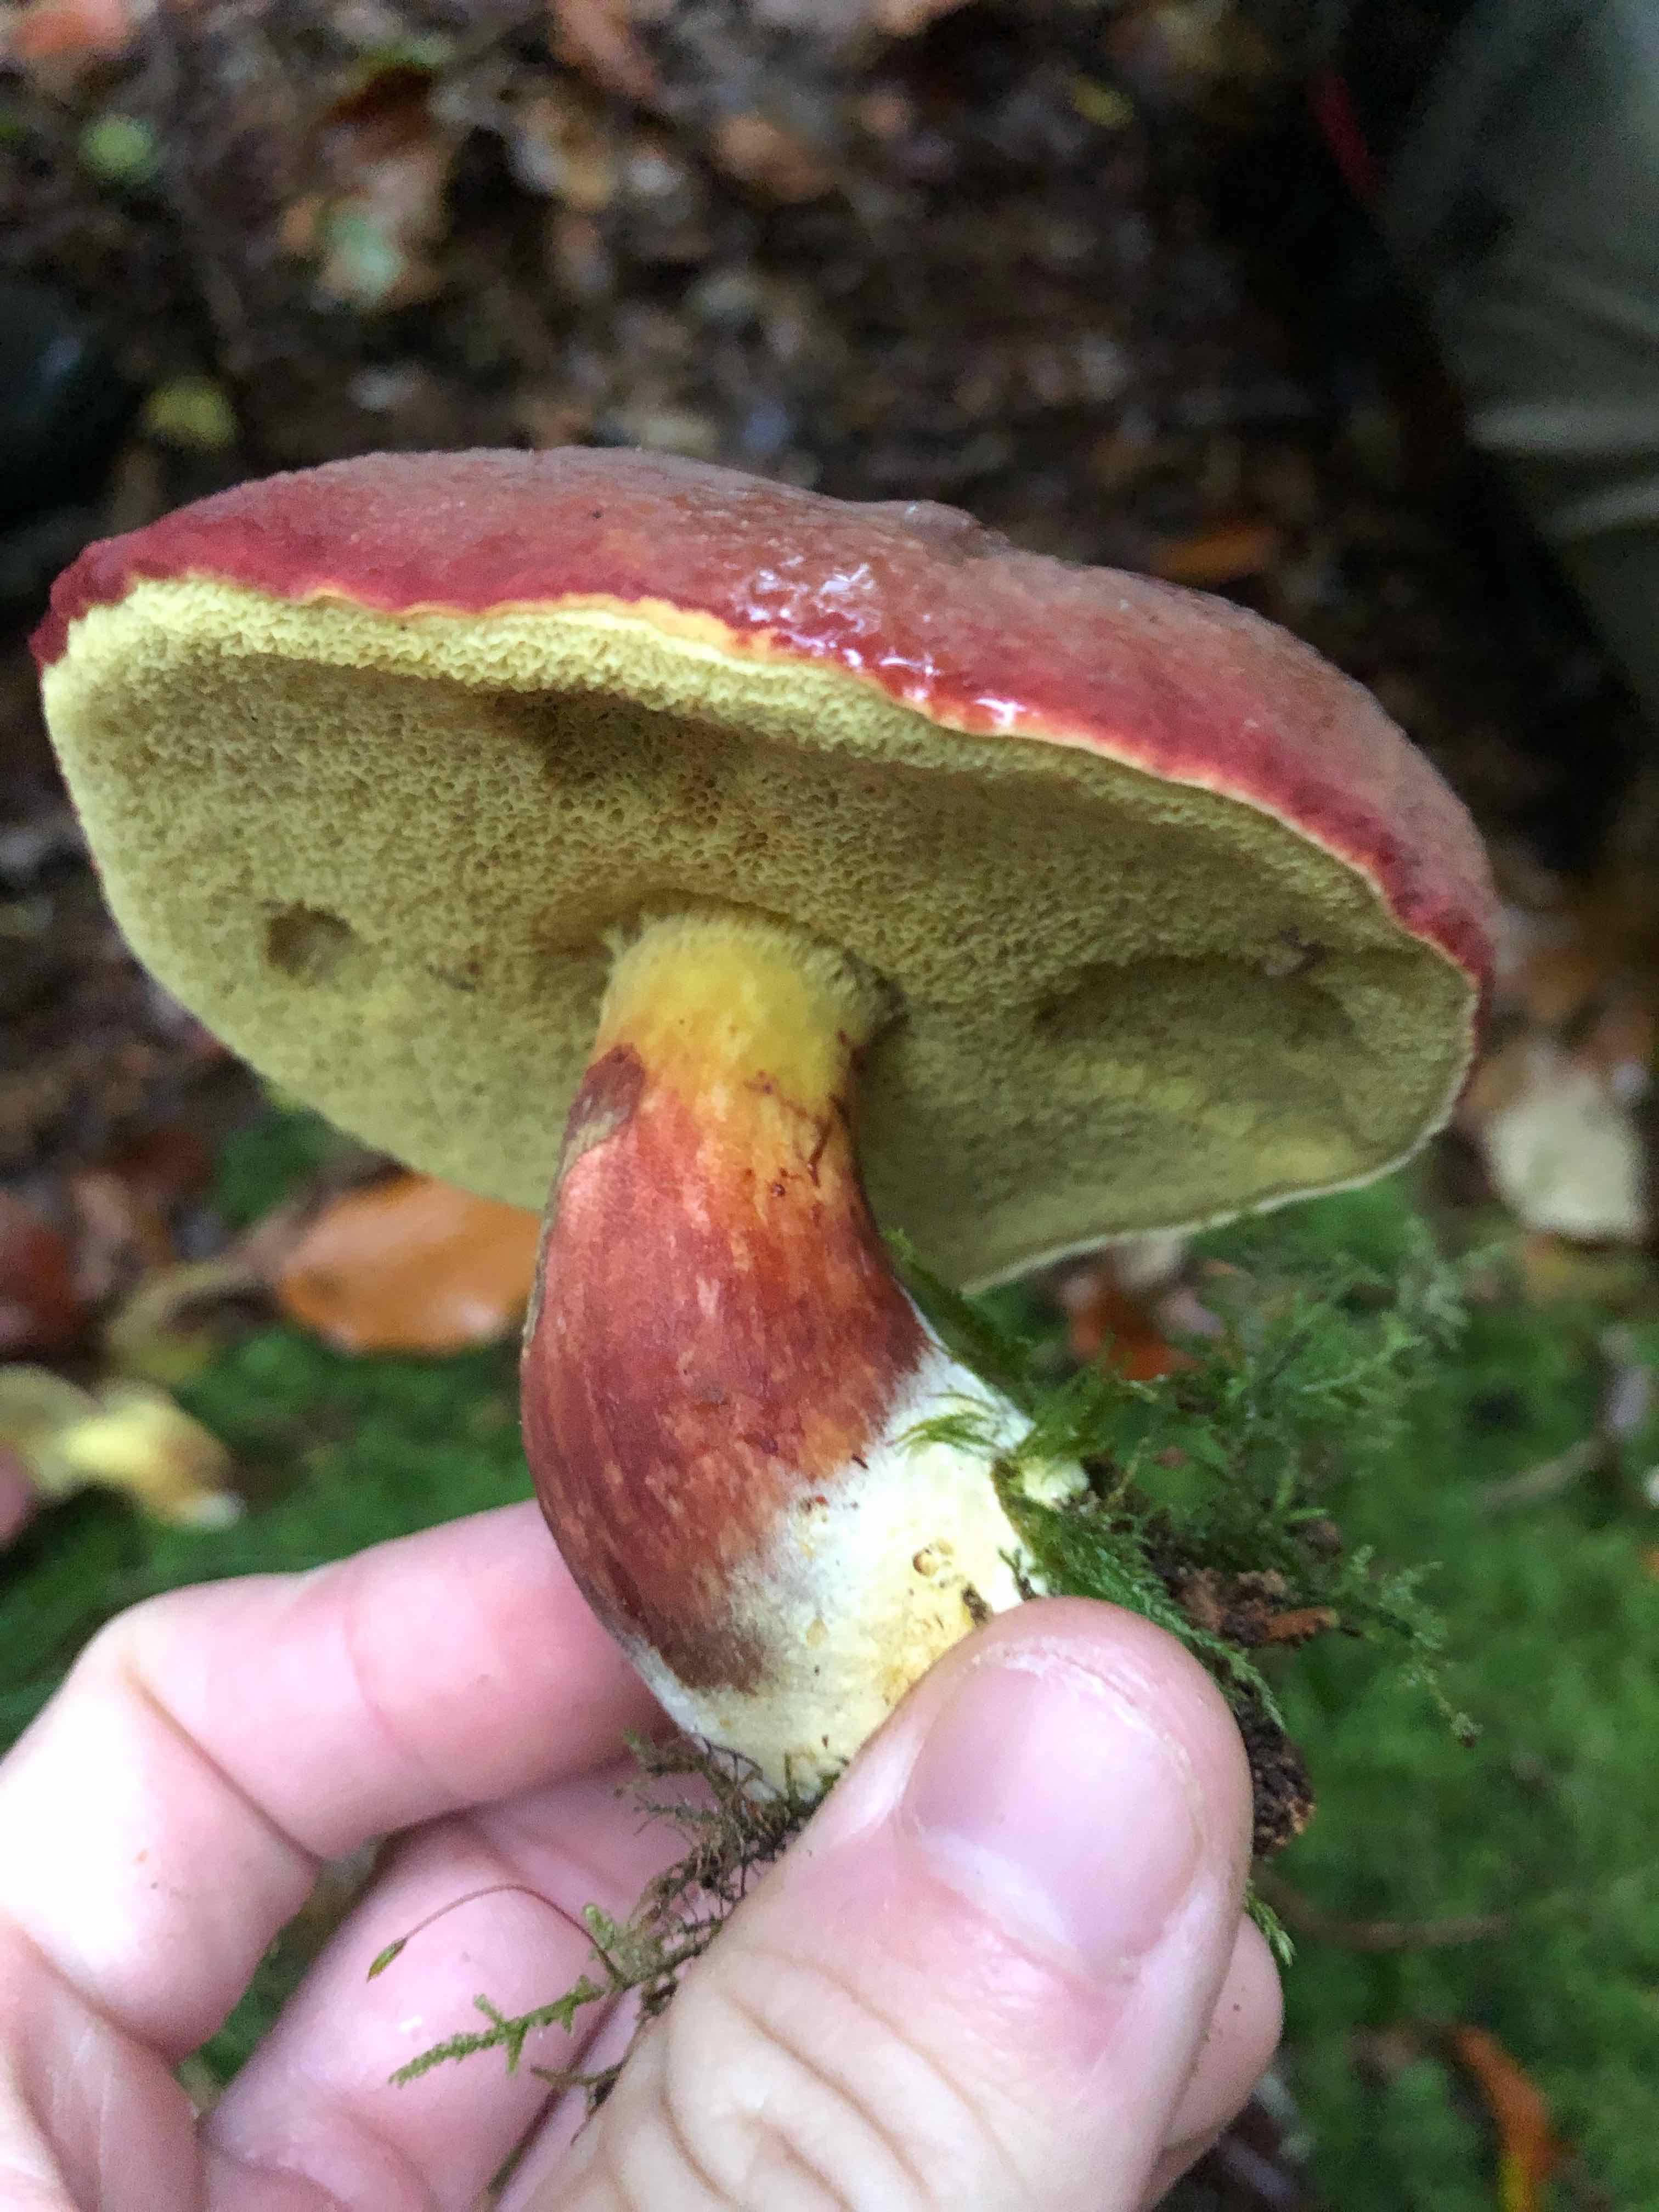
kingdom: Fungi
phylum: Basidiomycota
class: Agaricomycetes
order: Boletales
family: Boletaceae
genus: Xerocomellus
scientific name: Xerocomellus pruinatus
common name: dugget rørhat
